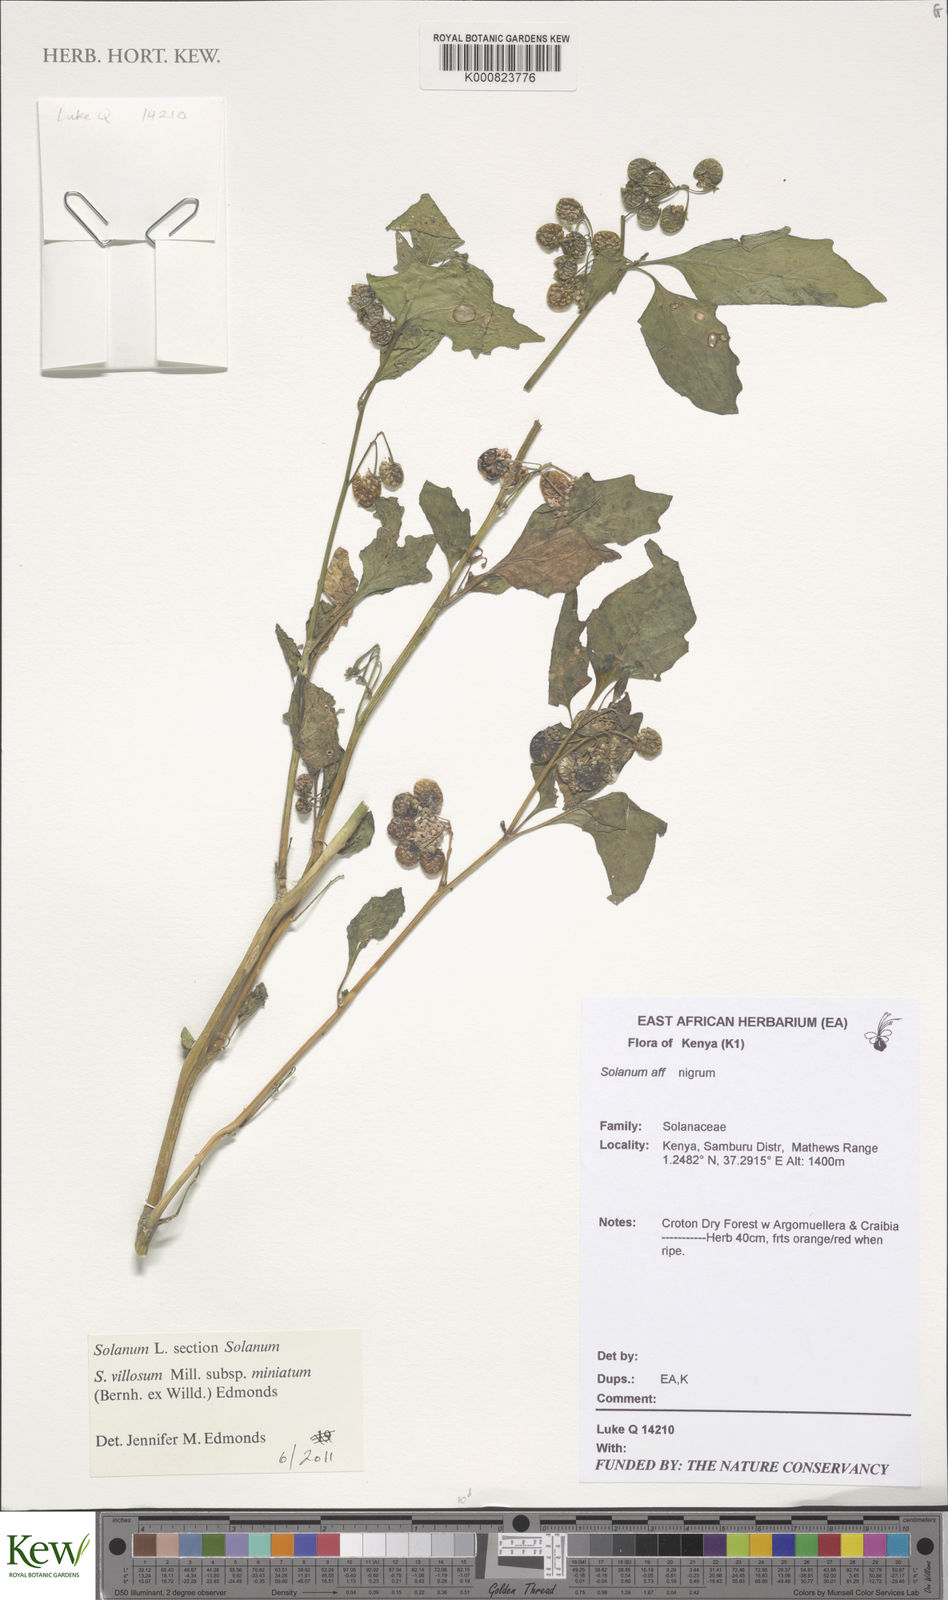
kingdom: Plantae
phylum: Tracheophyta
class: Magnoliopsida
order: Solanales
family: Solanaceae
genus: Solanum
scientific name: Solanum villosum
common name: Red nightshade
